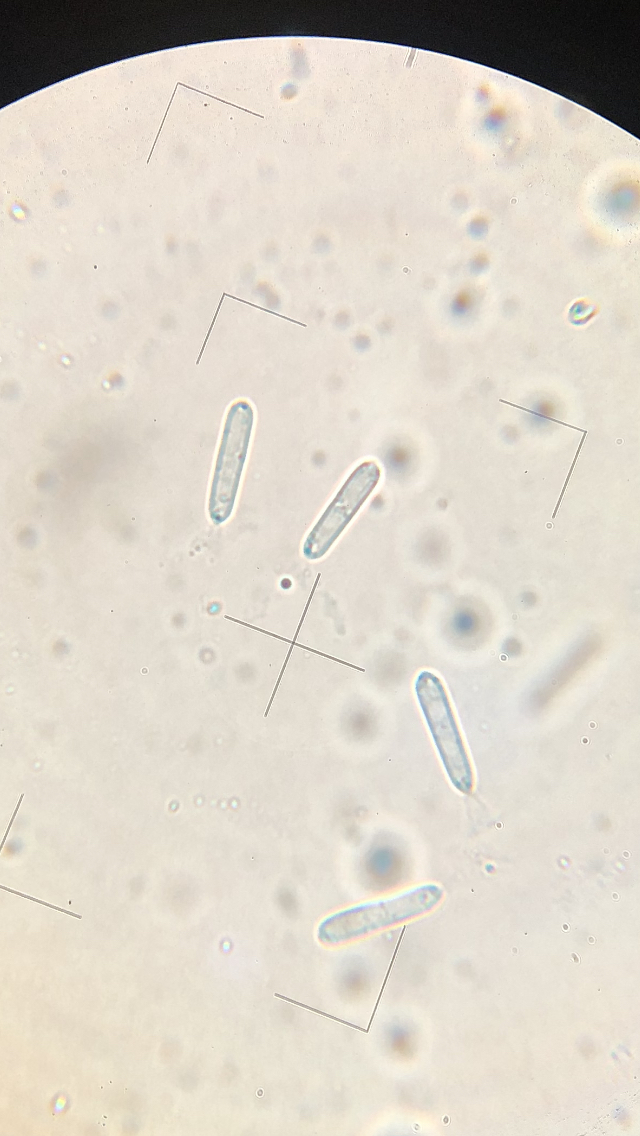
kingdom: Fungi
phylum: Ascomycota
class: Leotiomycetes
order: Phacidiales
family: Phacidiaceae
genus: Phacidium
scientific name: Phacidium lauri
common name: kristtorn-tandskive
